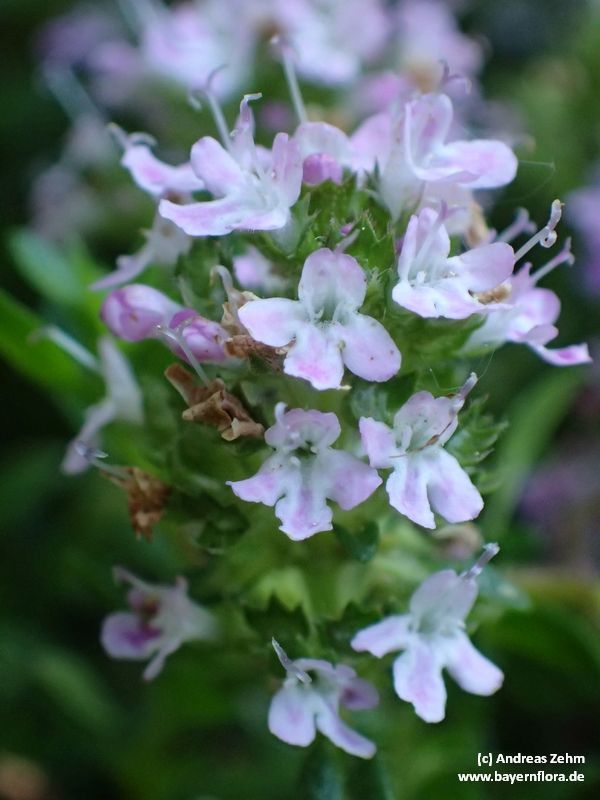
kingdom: Plantae
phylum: Tracheophyta
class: Magnoliopsida
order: Lamiales
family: Lamiaceae
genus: Satureja
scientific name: Satureja montana
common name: Winter savory
